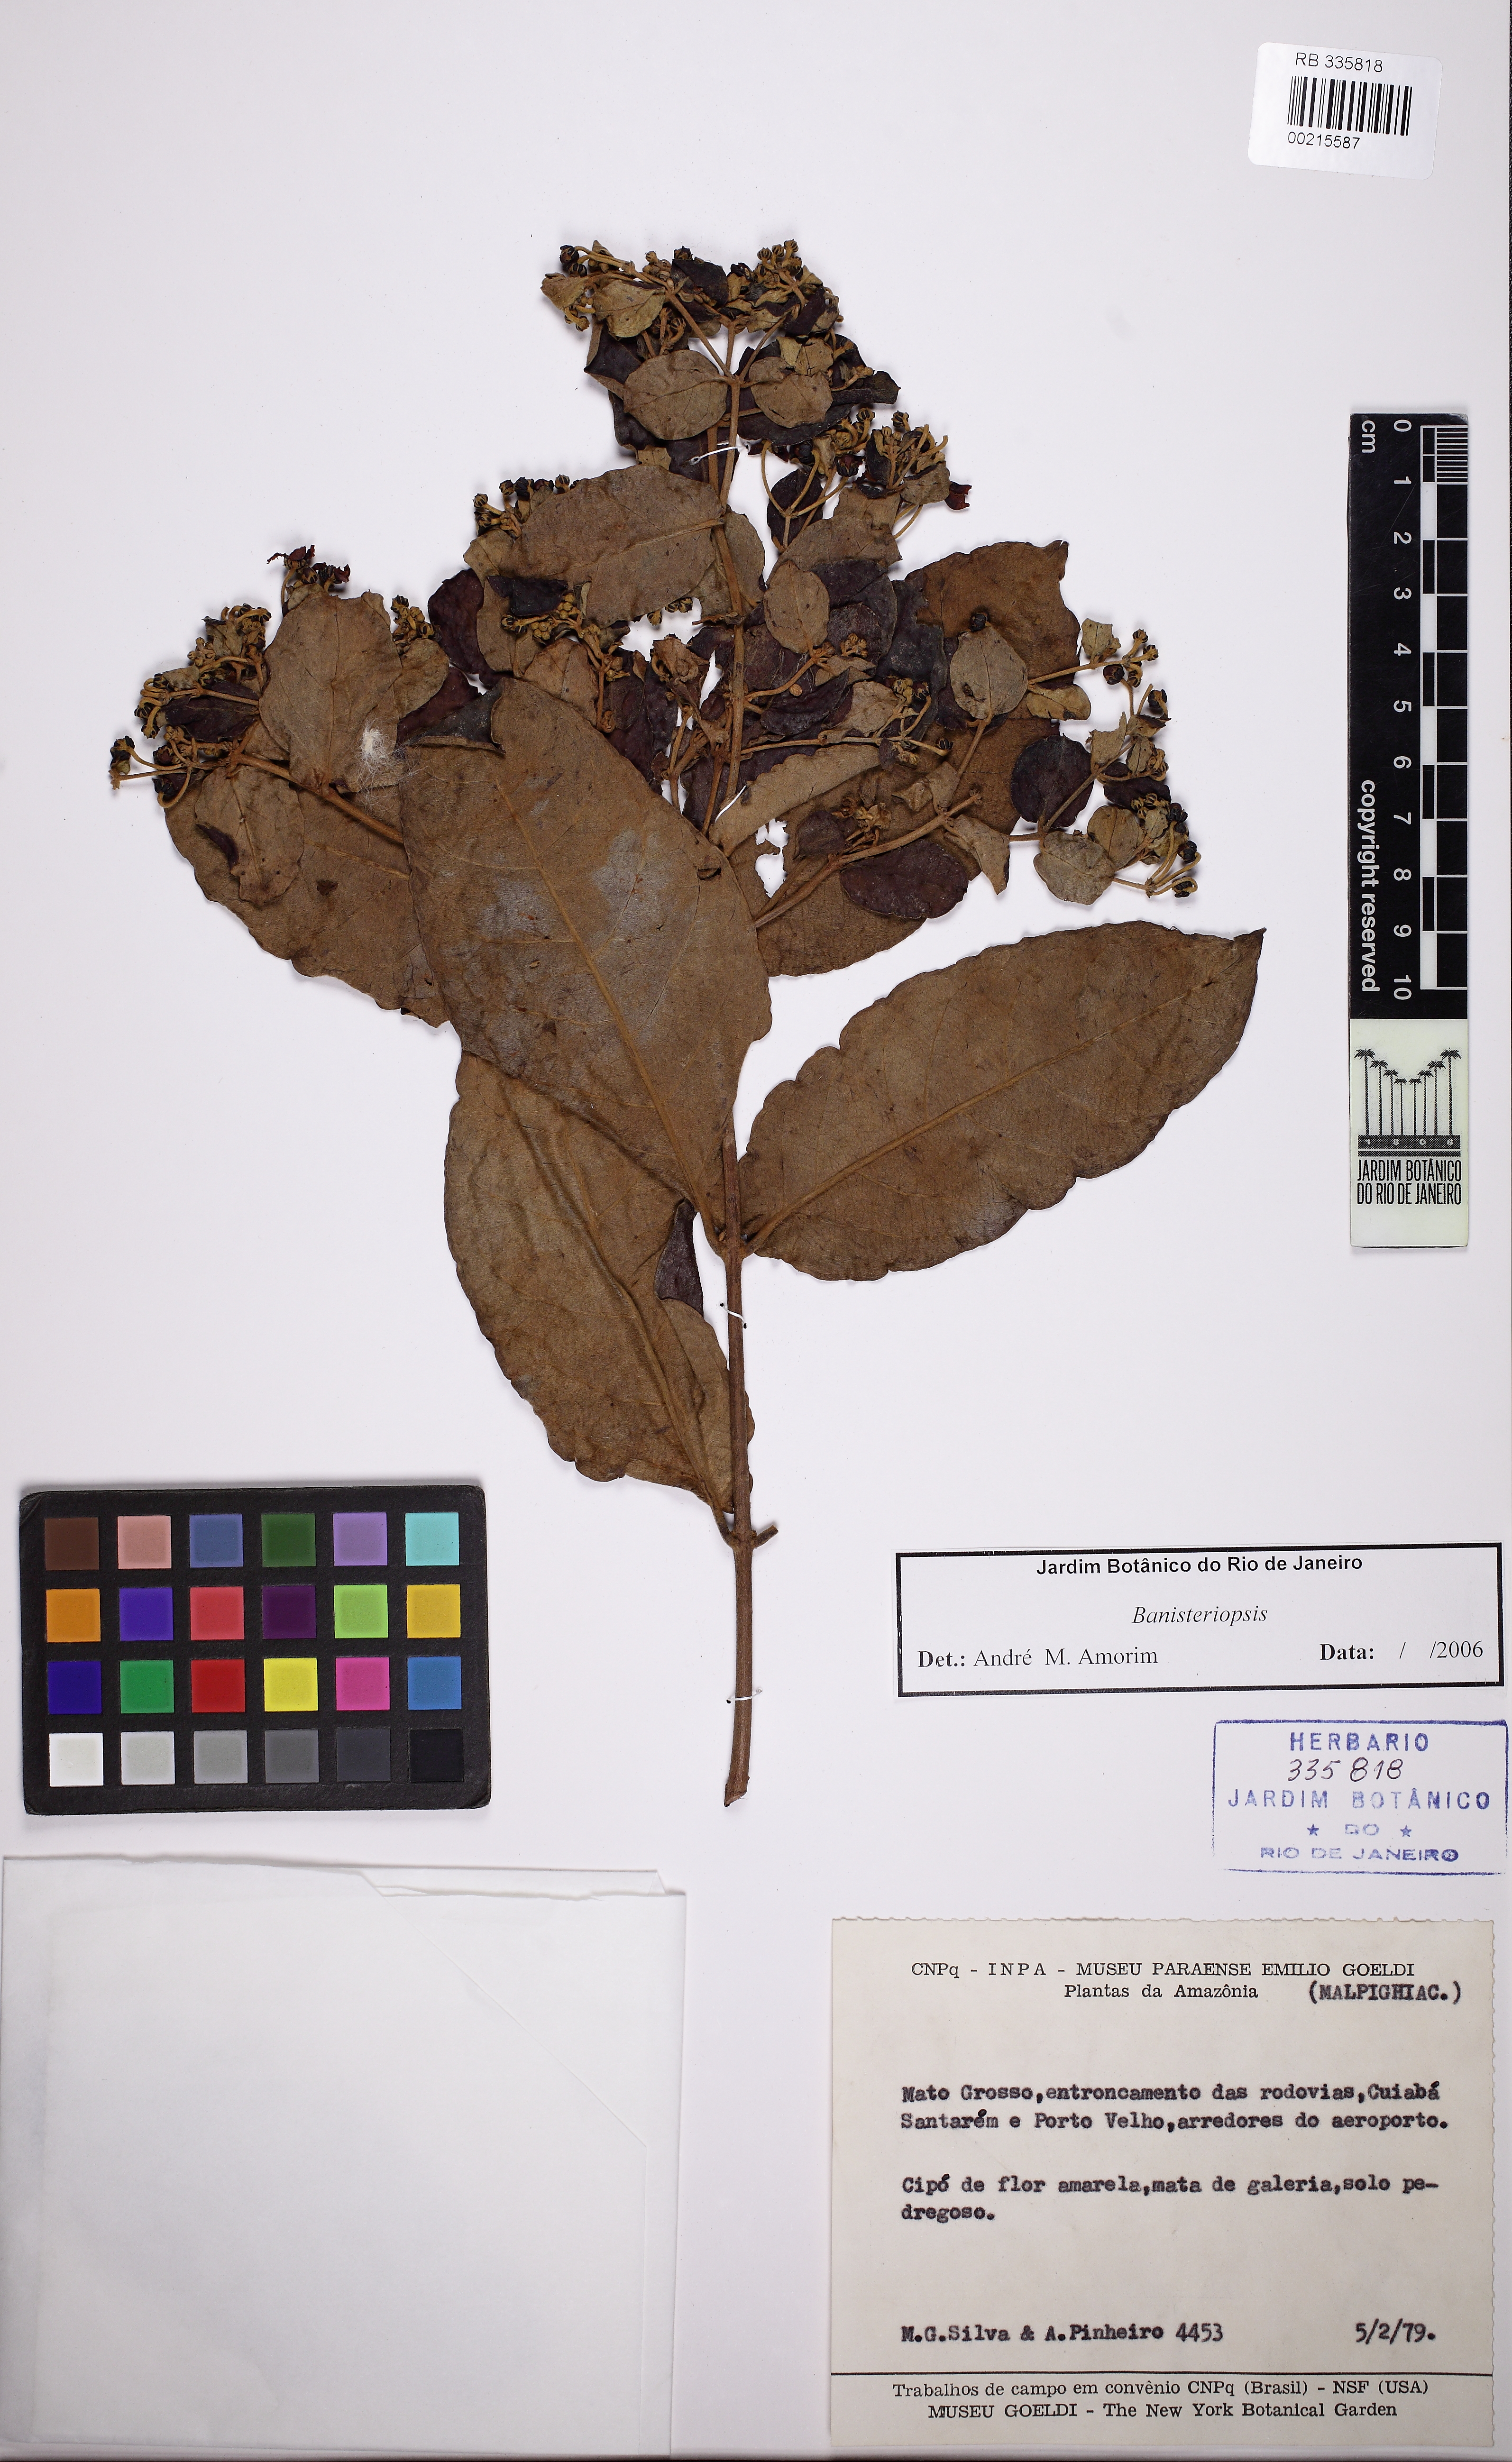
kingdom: Plantae
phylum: Tracheophyta
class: Magnoliopsida
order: Malpighiales
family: Malpighiaceae
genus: Banisteriopsis
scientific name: Banisteriopsis
